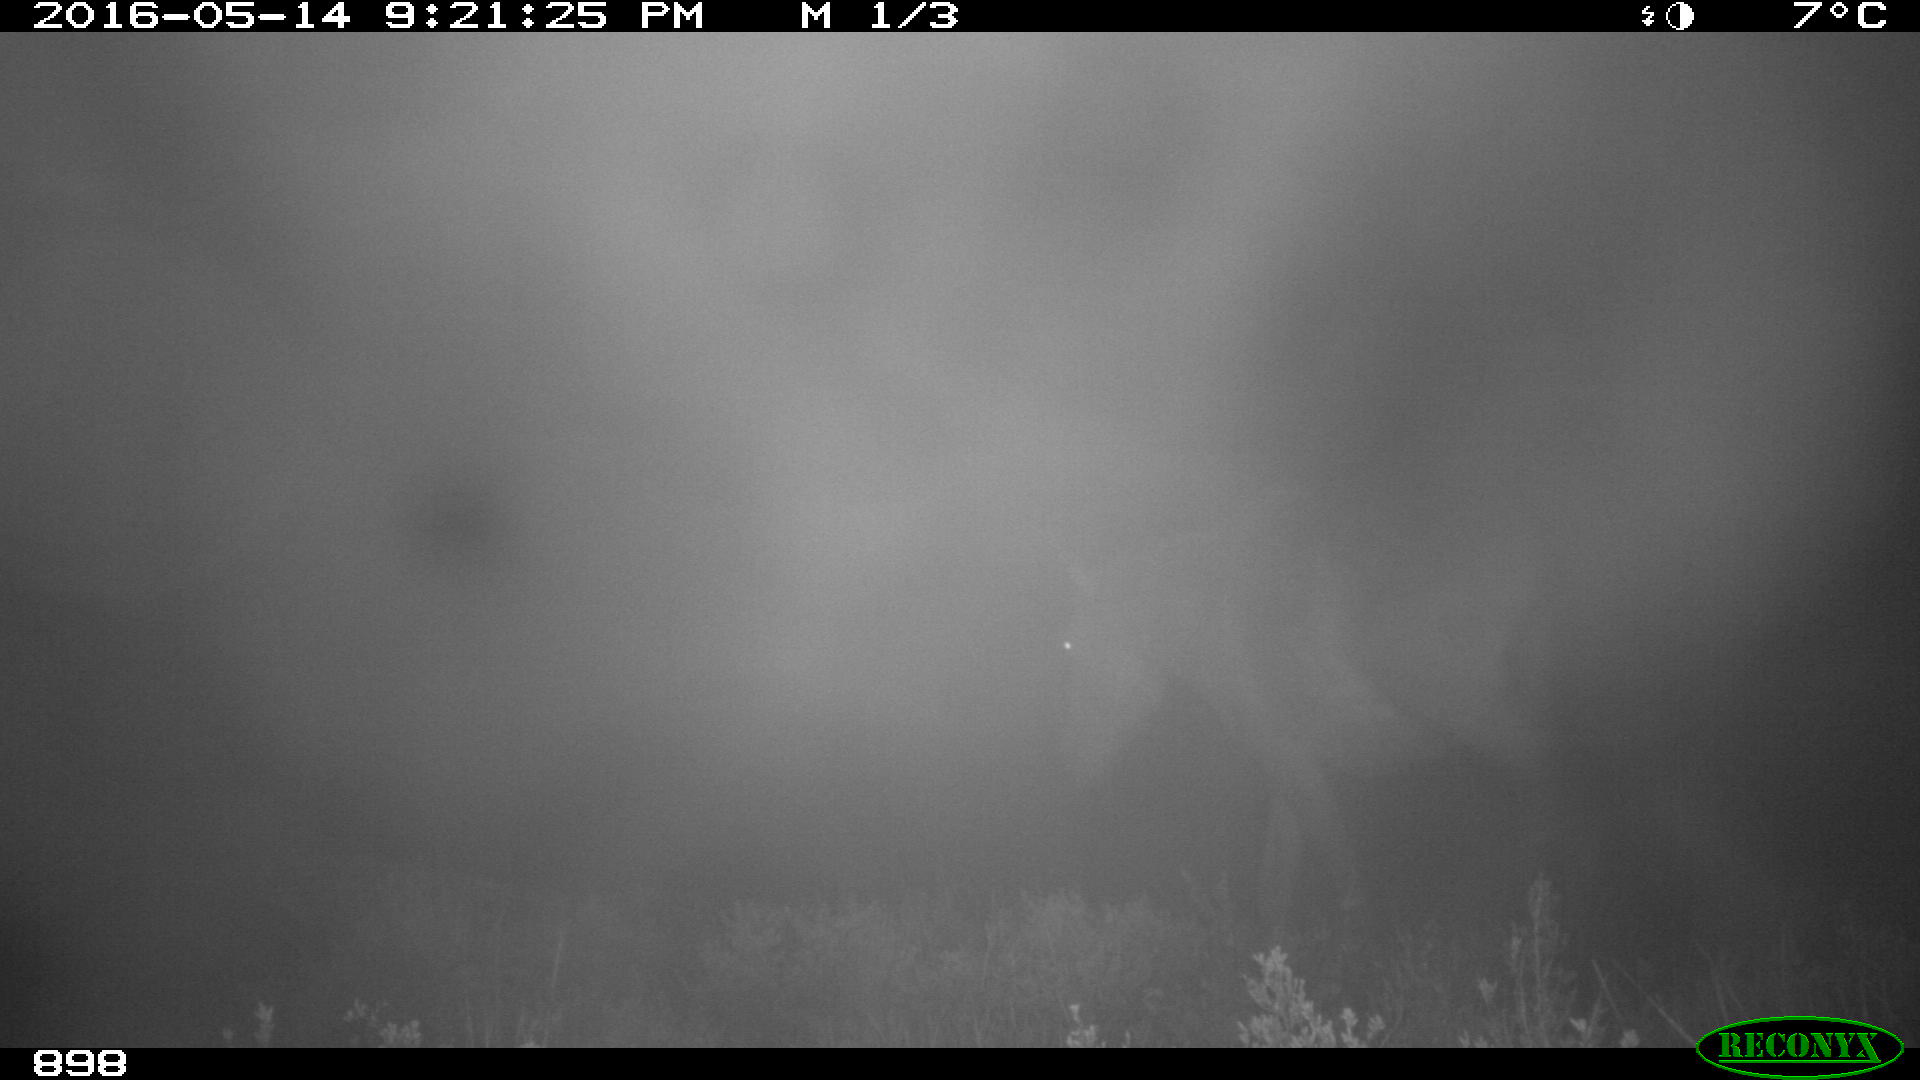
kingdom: Animalia
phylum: Chordata
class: Mammalia
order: Perissodactyla
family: Equidae
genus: Equus
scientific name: Equus caballus
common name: Horse
